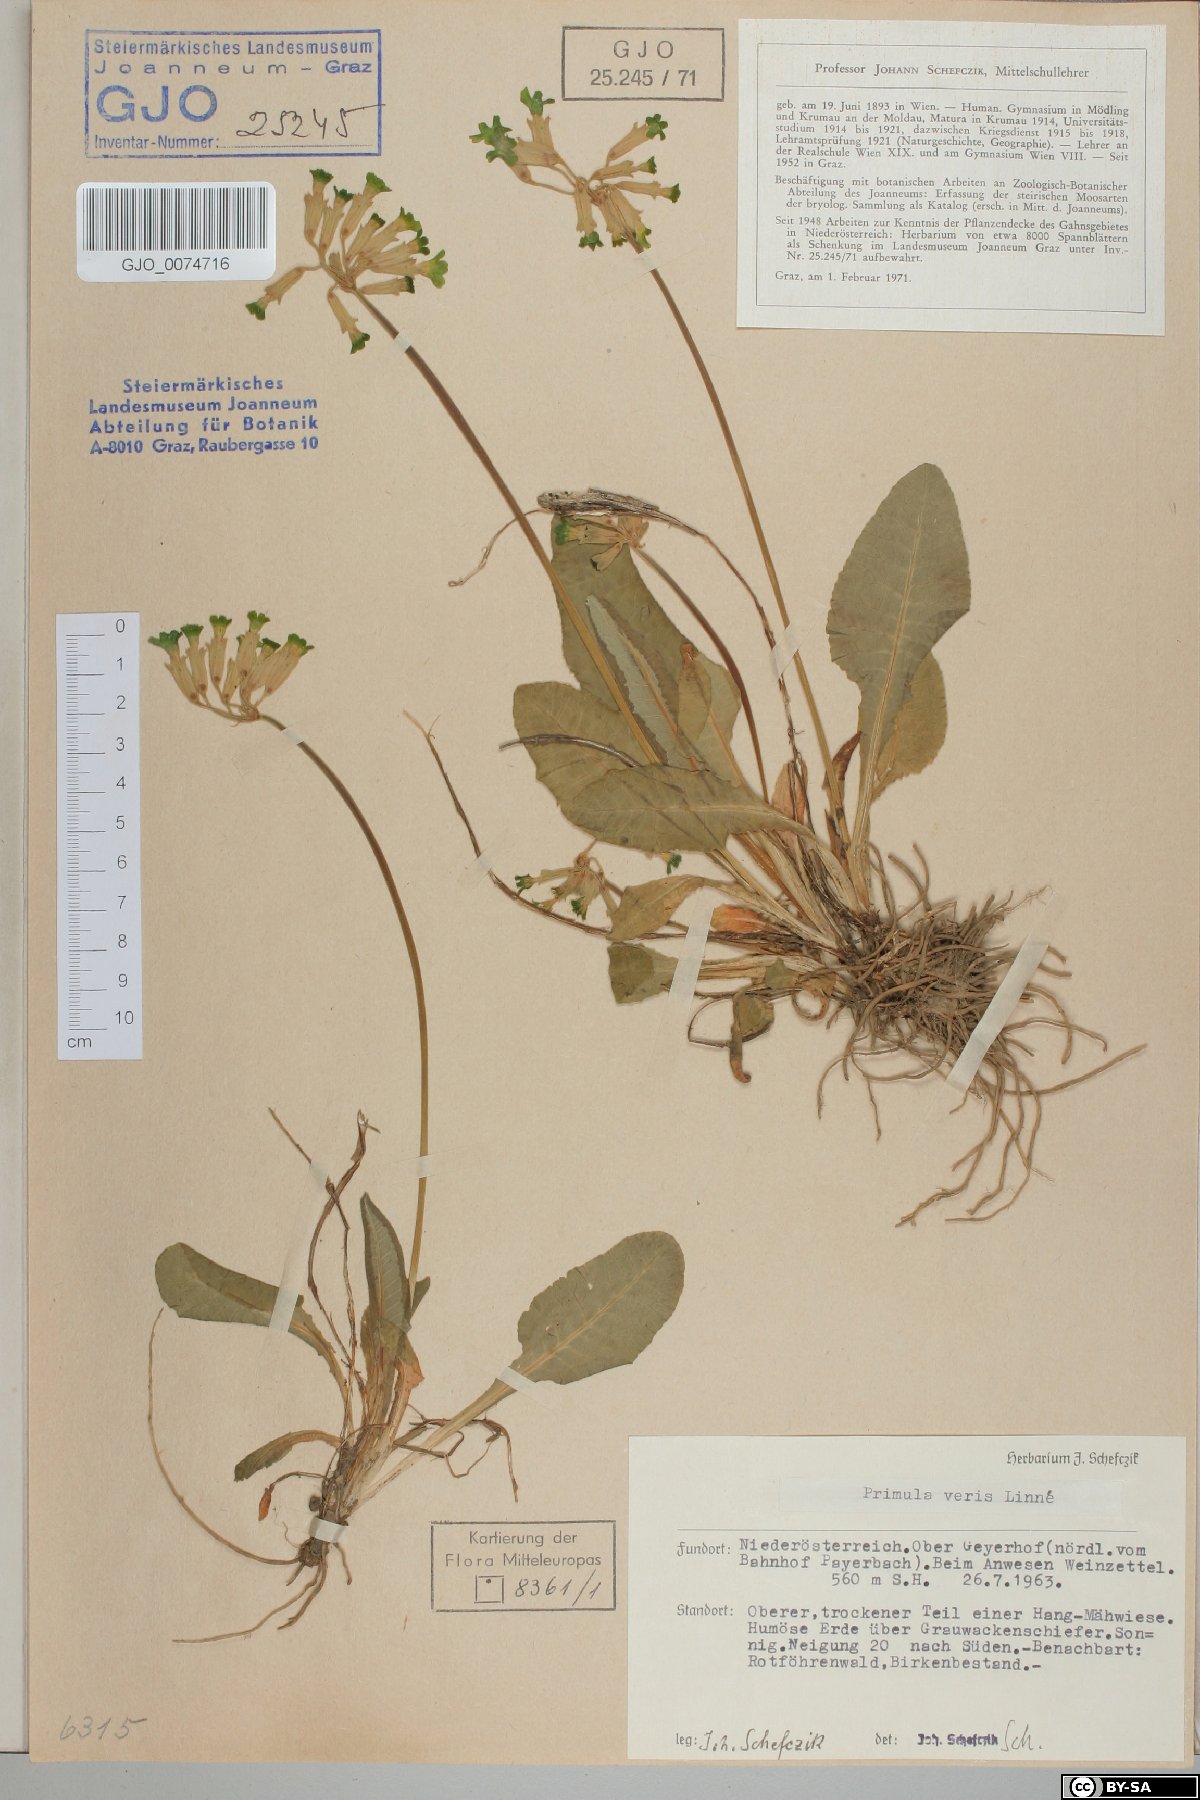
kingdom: Plantae
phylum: Tracheophyta
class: Magnoliopsida
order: Ericales
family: Primulaceae
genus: Primula
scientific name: Primula veris
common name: Cowslip
